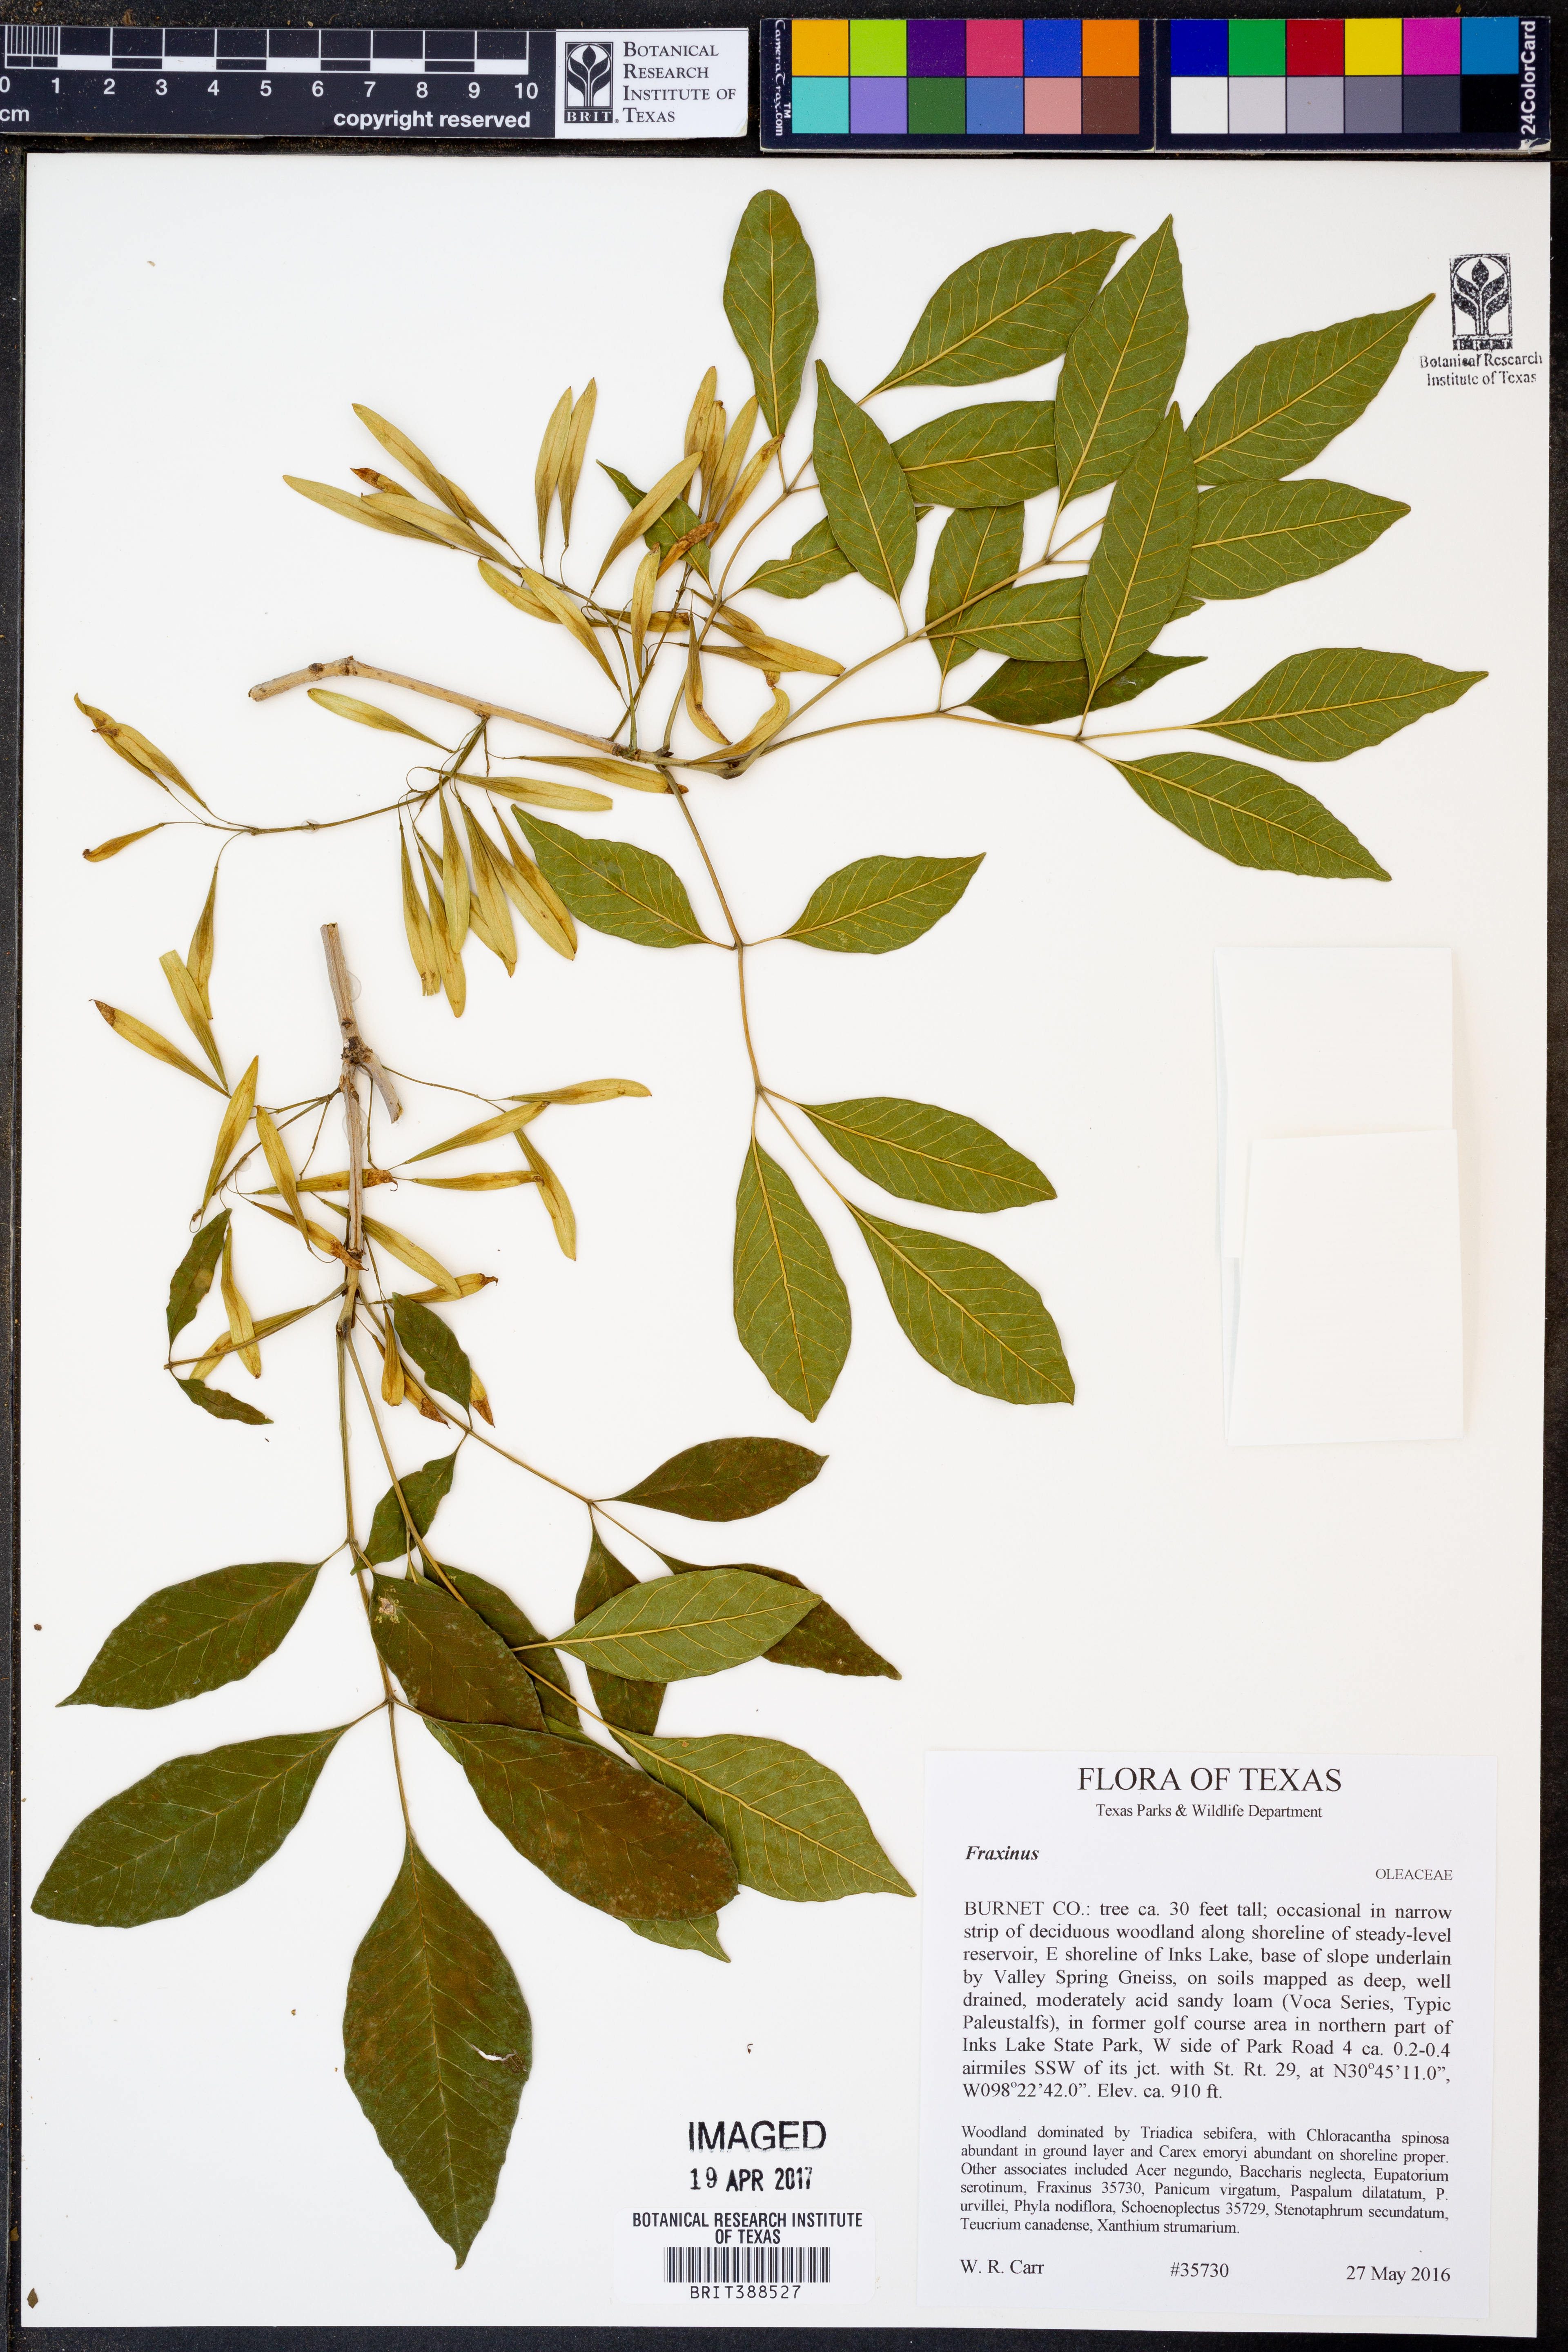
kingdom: Plantae
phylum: Tracheophyta
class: Magnoliopsida
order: Lamiales
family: Oleaceae
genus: Fraxinus
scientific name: Fraxinus
